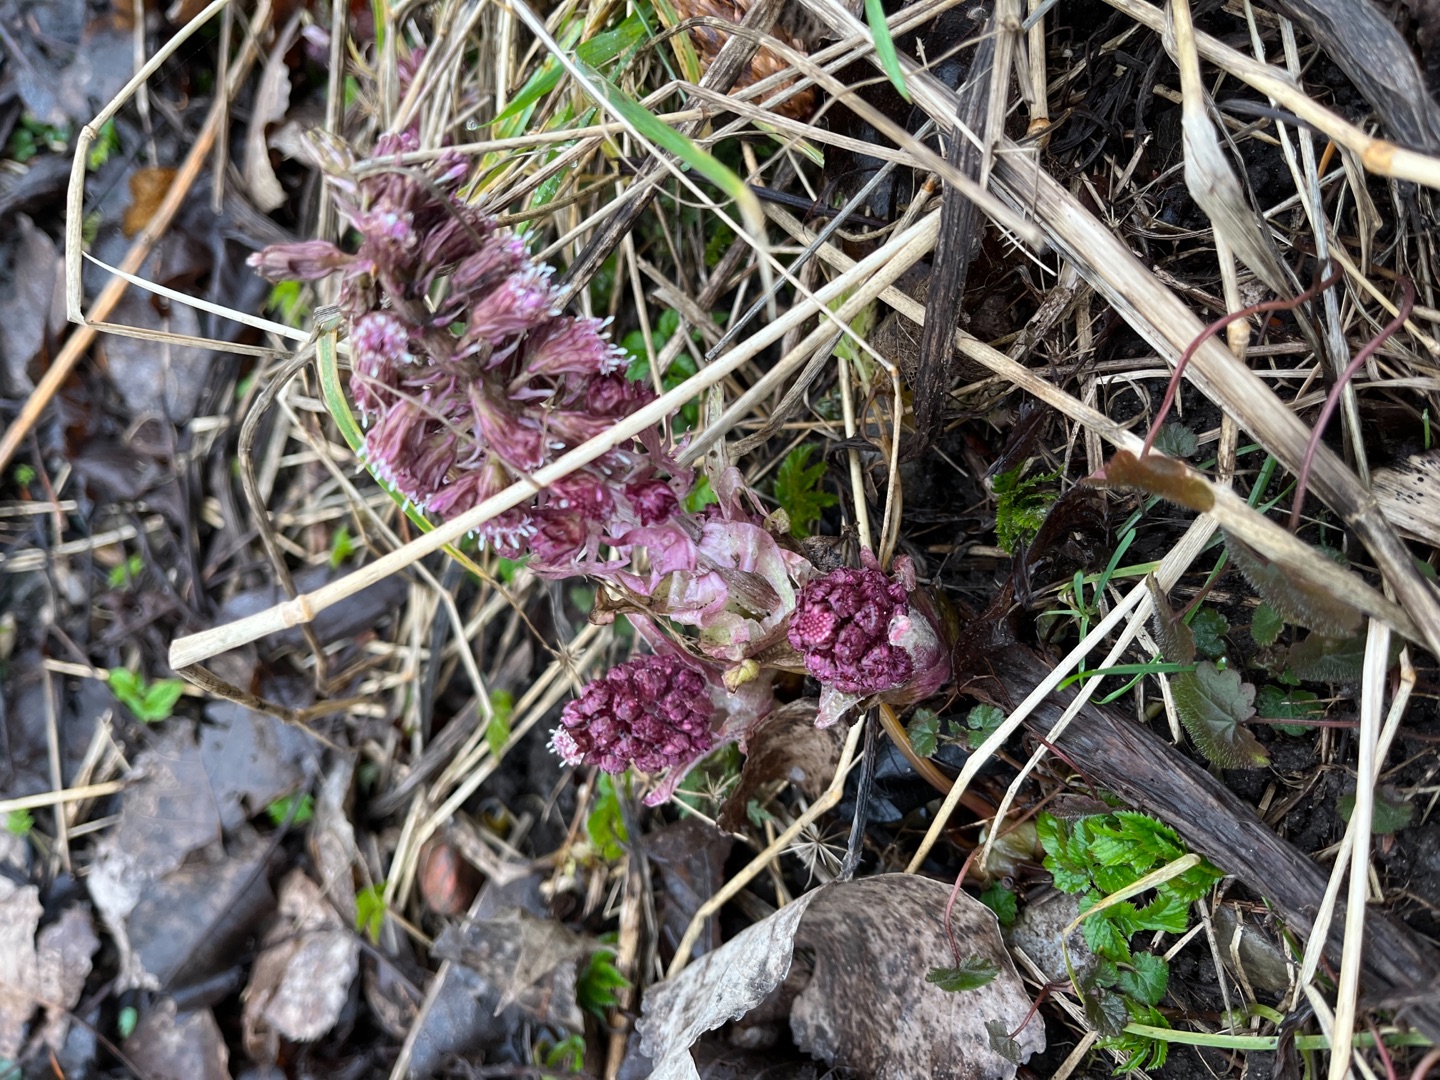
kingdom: Plantae
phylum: Tracheophyta
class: Magnoliopsida
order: Asterales
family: Asteraceae
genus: Petasites
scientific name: Petasites hybridus
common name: Rød hestehov
